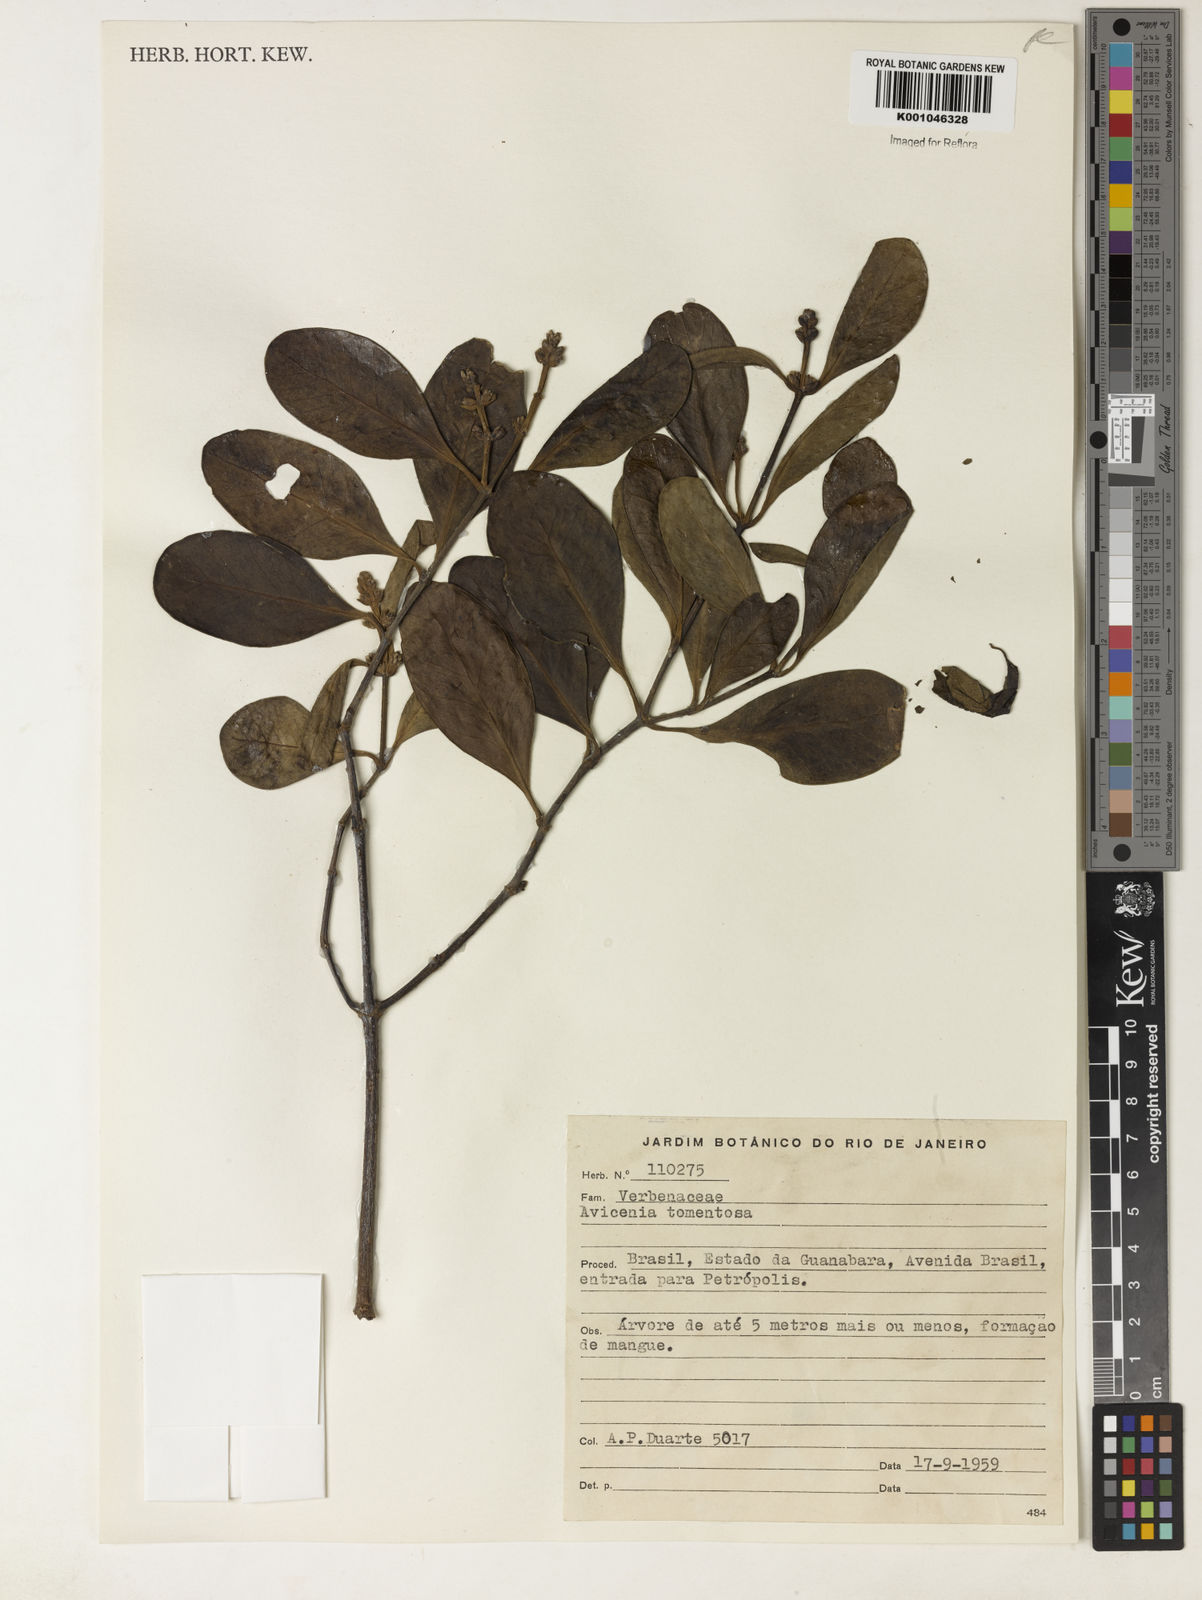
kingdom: Plantae
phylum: Tracheophyta
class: Magnoliopsida
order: Lamiales
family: Acanthaceae
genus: Avicennia
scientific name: Avicennia germinans
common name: Black mangrove
